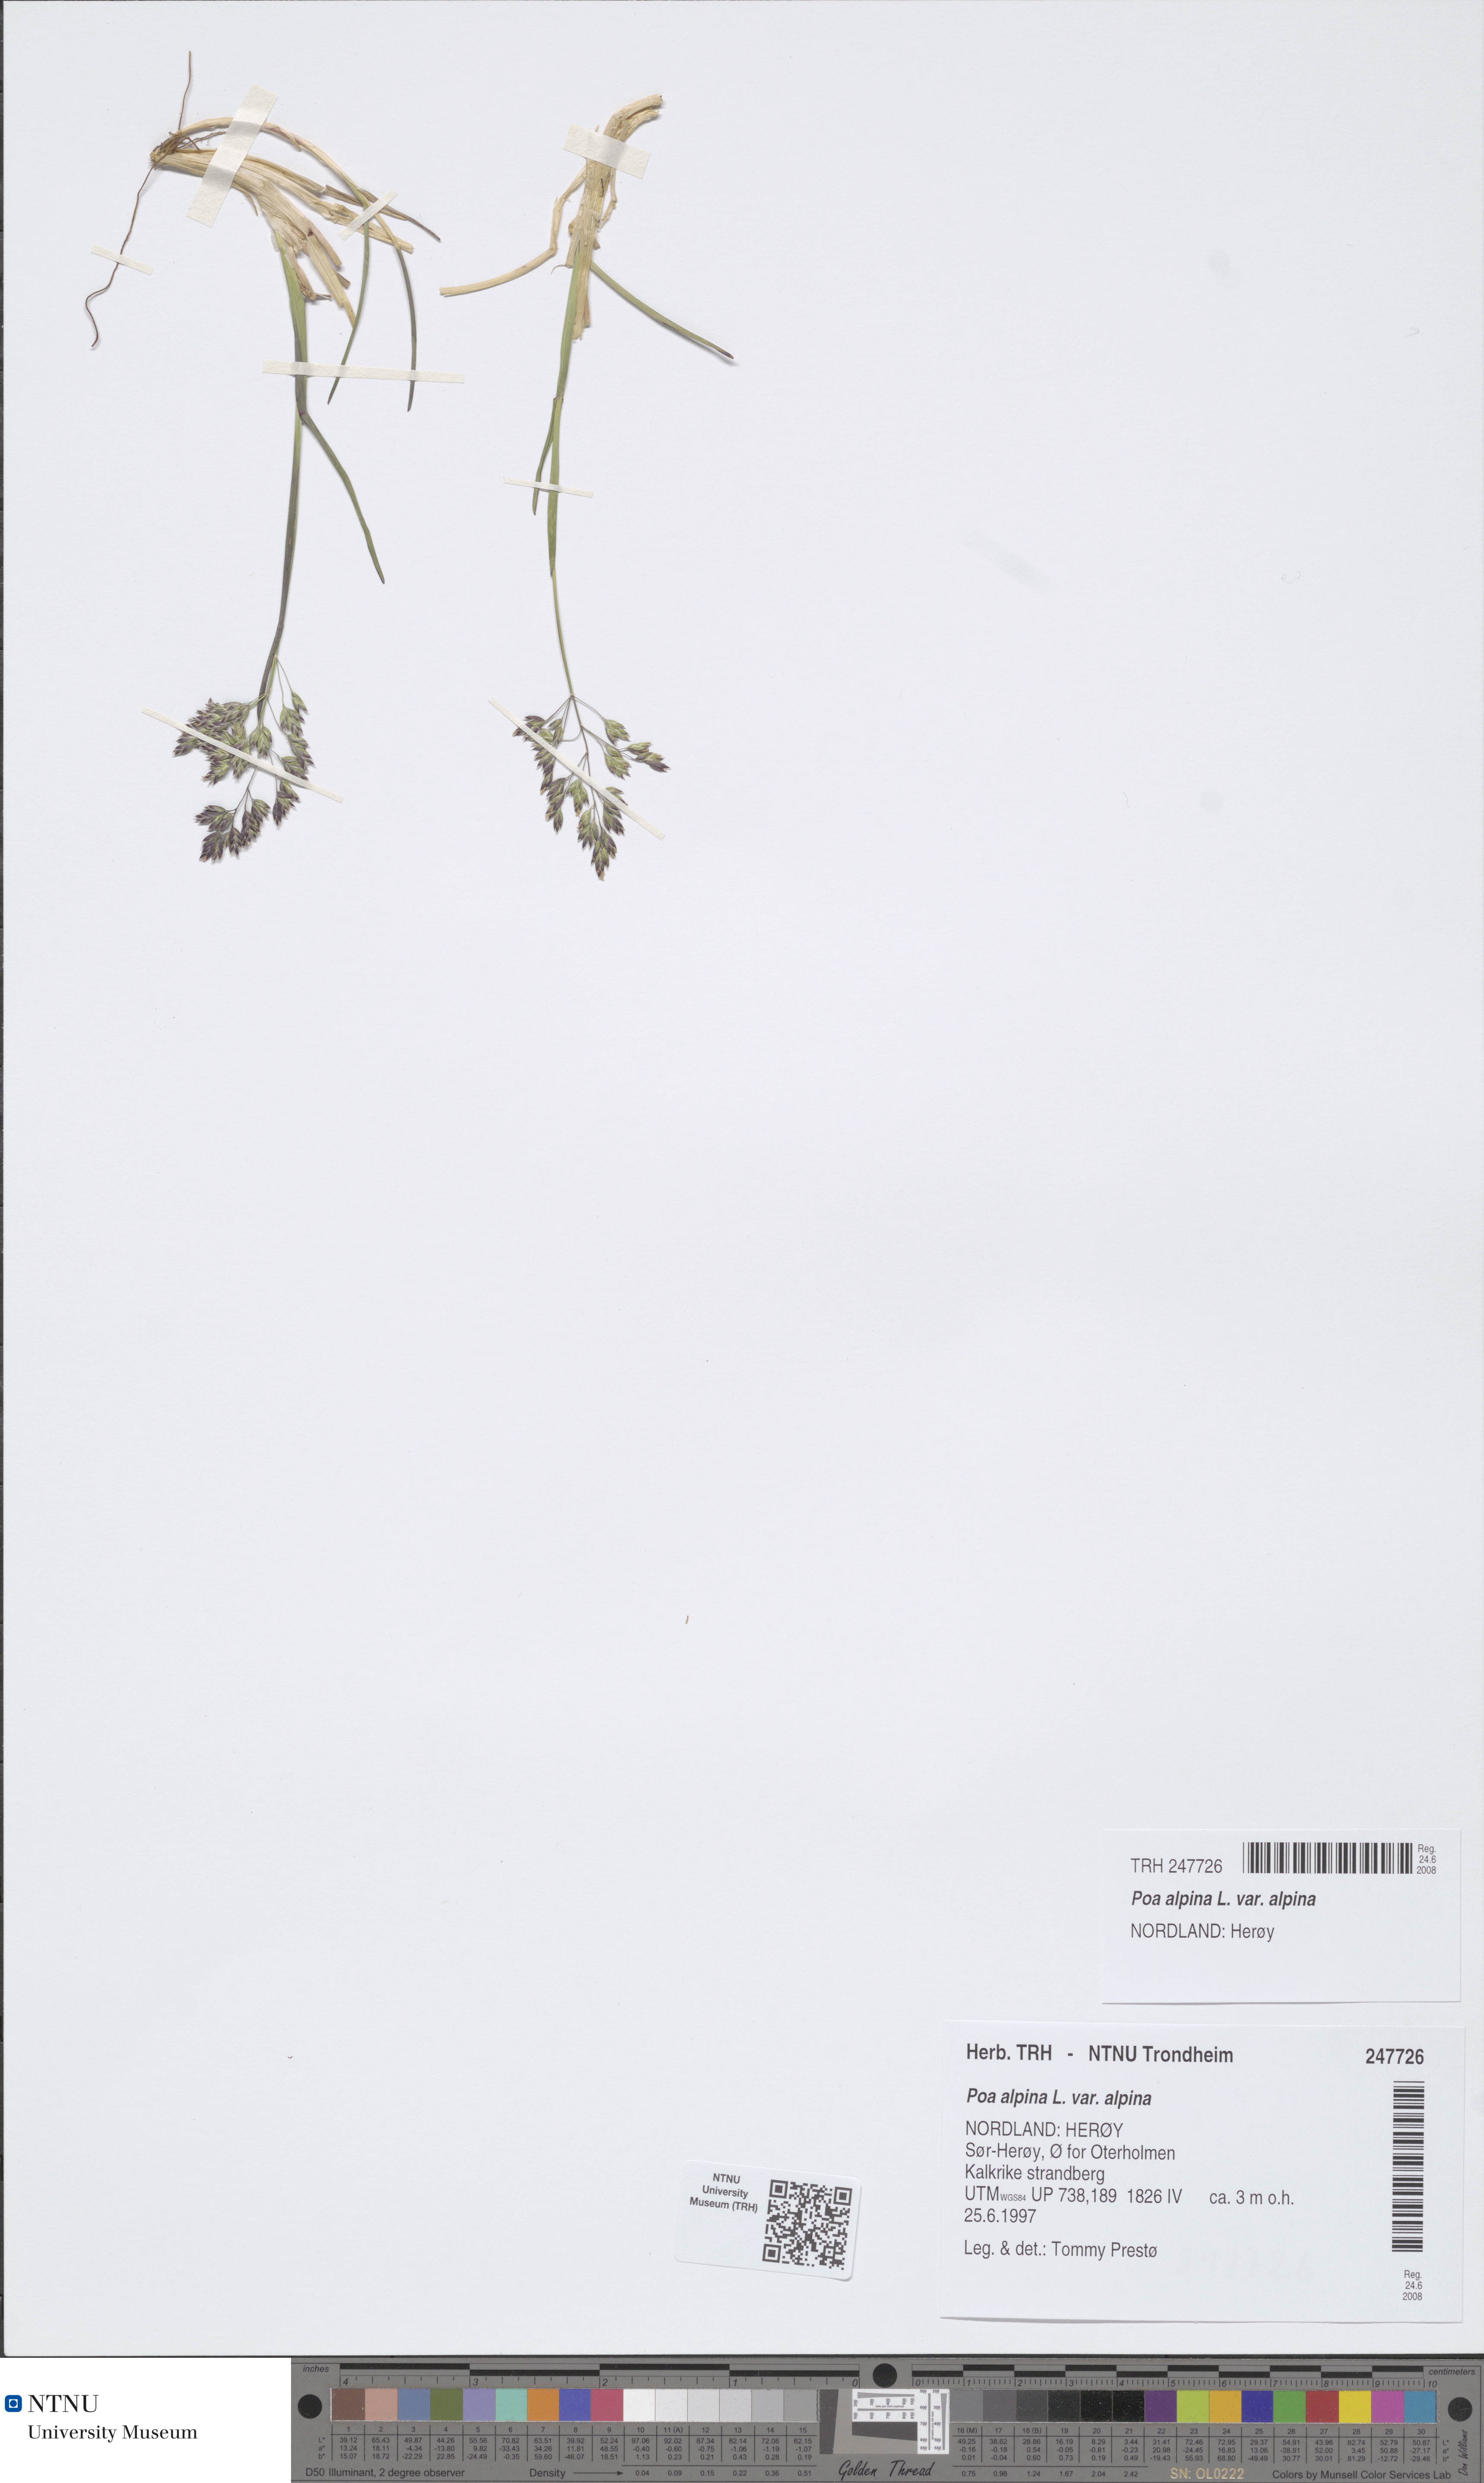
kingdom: Plantae
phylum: Tracheophyta
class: Liliopsida
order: Poales
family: Poaceae
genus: Poa
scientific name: Poa alpina
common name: Alpine bluegrass
